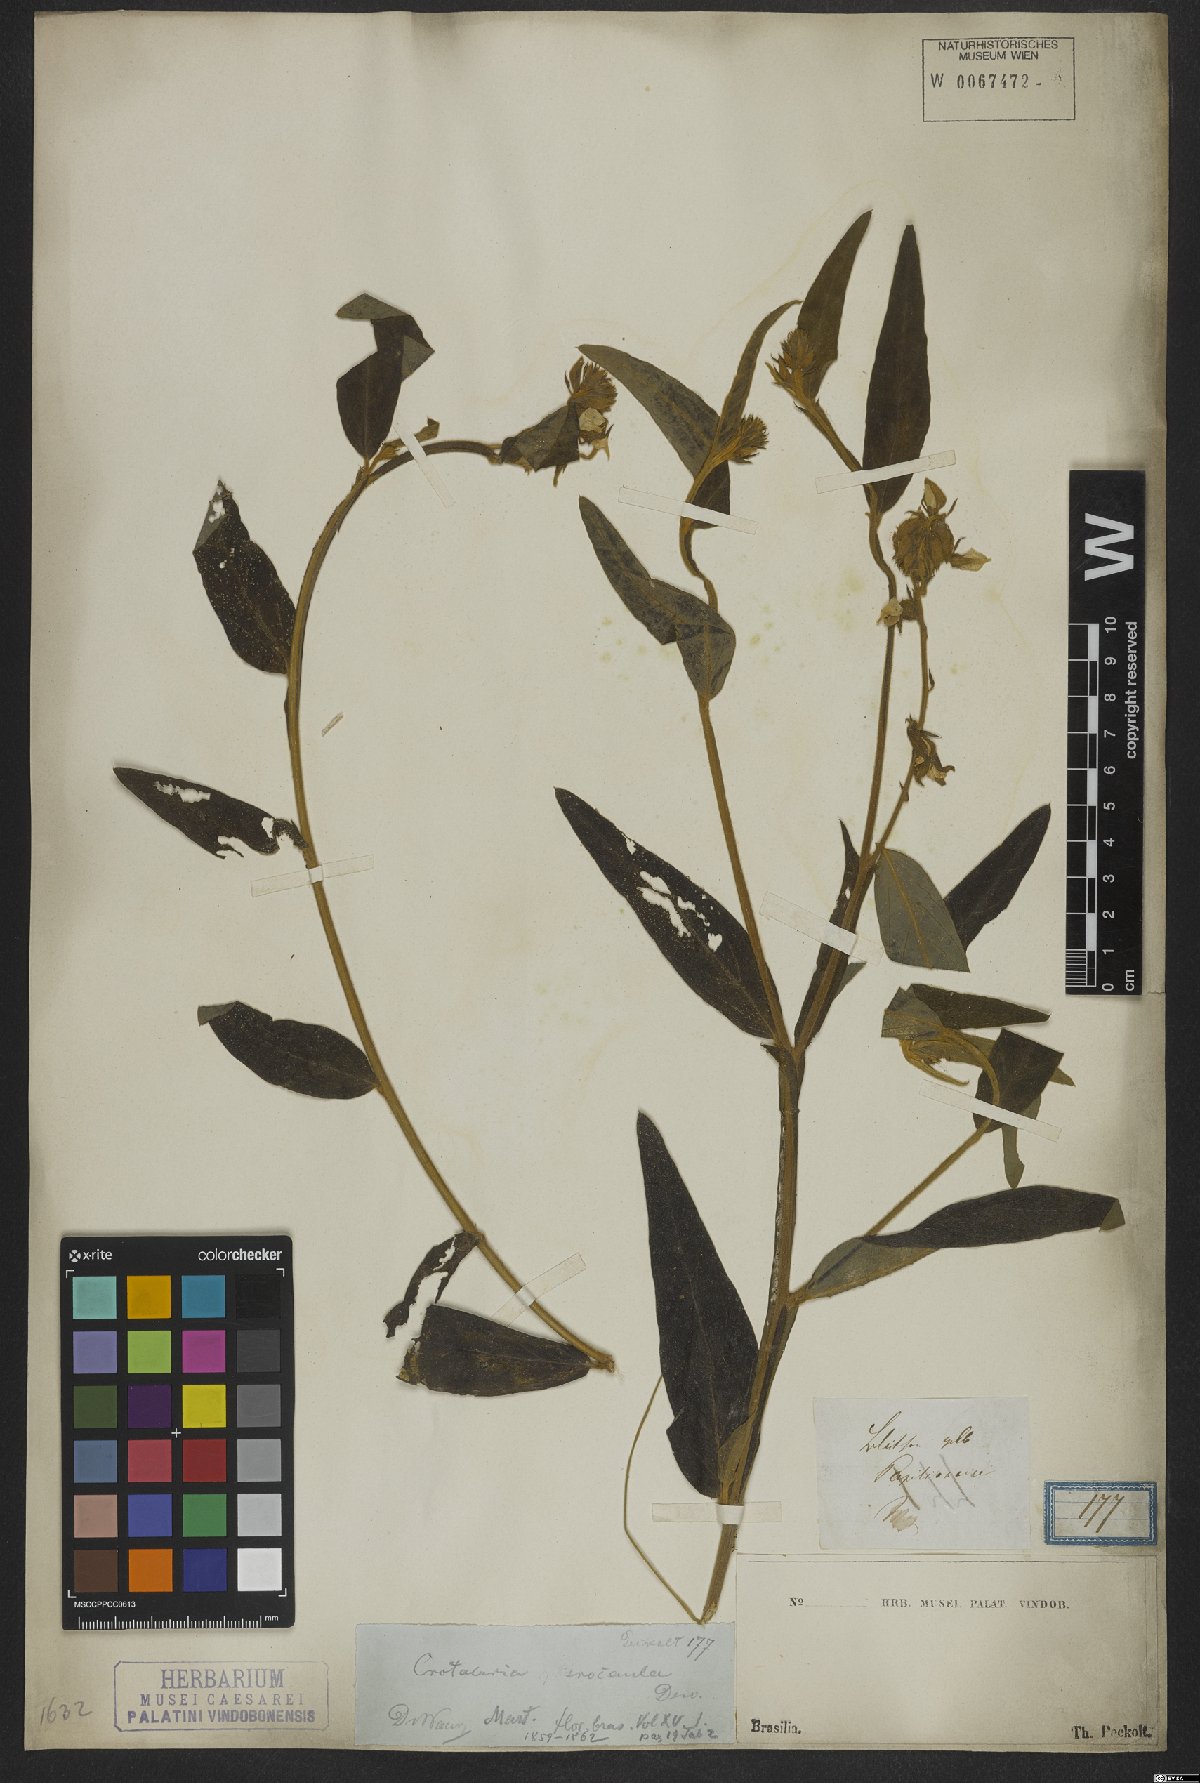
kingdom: Plantae
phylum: Tracheophyta
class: Magnoliopsida
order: Fabales
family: Fabaceae
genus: Crotalaria
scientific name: Crotalaria pilosa
